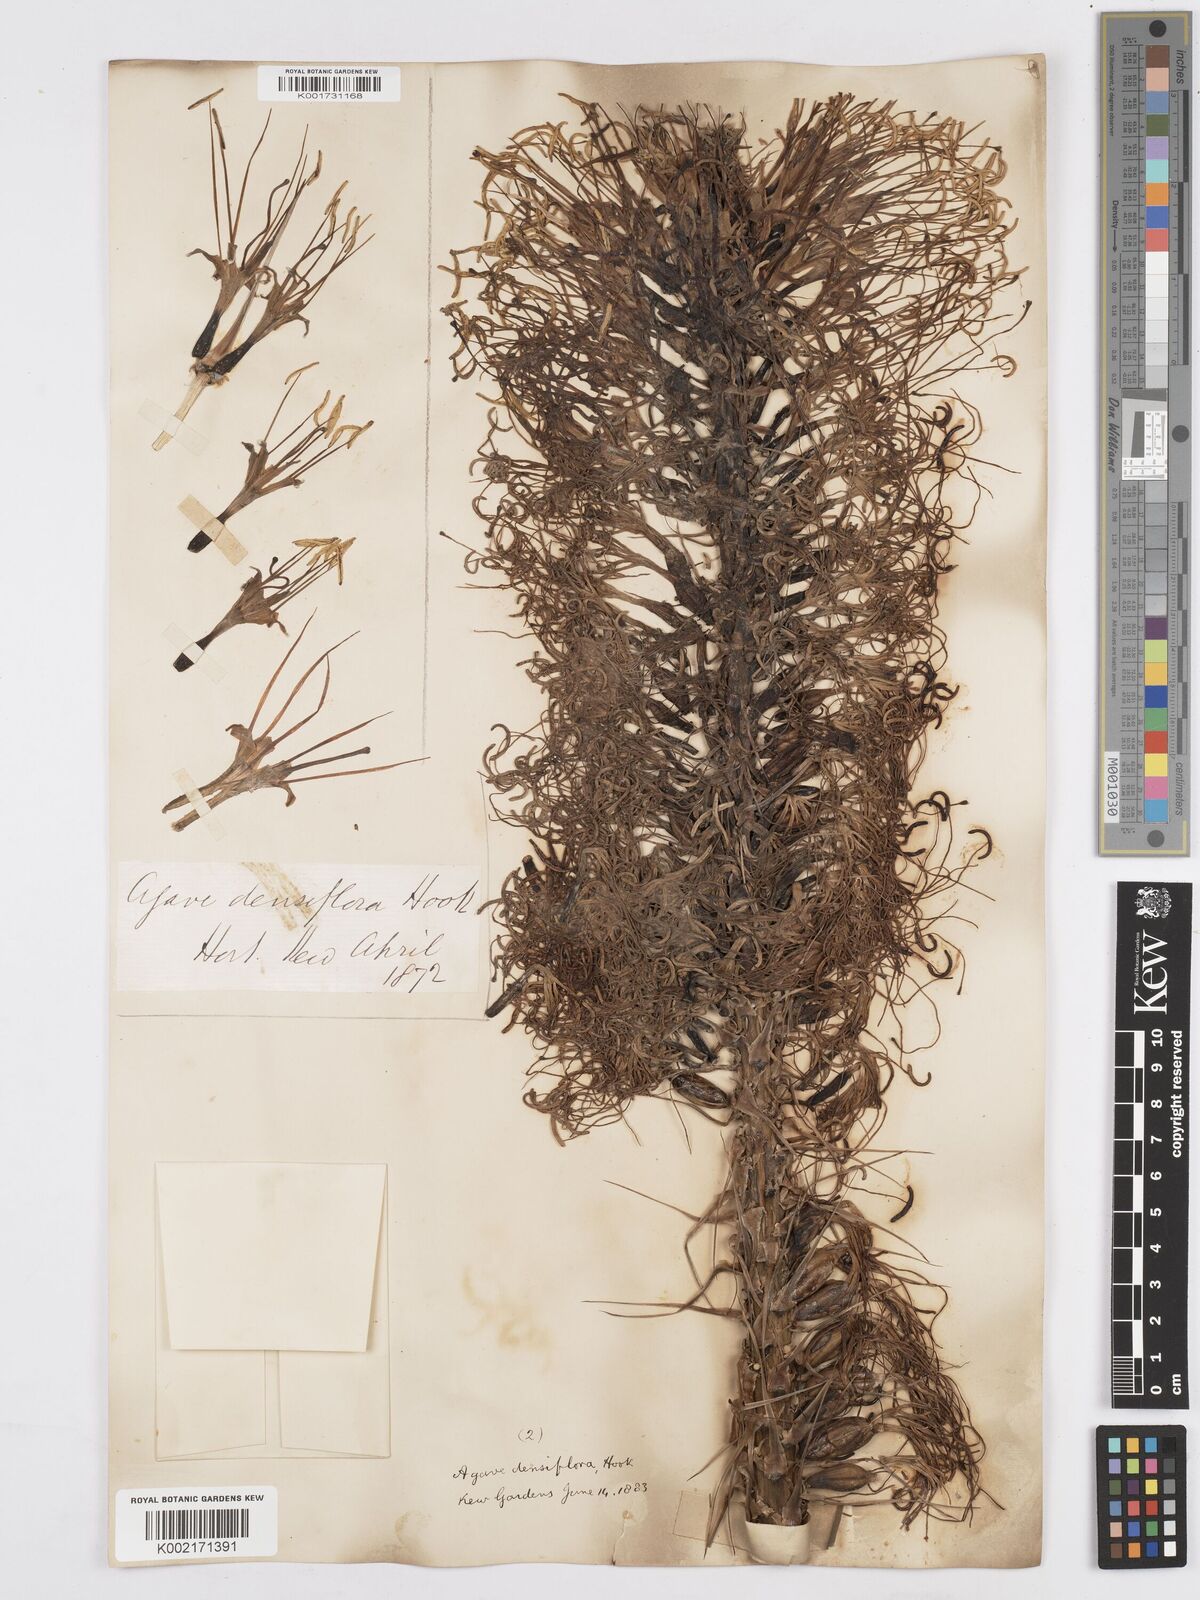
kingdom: Plantae
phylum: Tracheophyta
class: Liliopsida
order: Asparagales
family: Asparagaceae
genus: Agave
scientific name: Agave polyacantha
